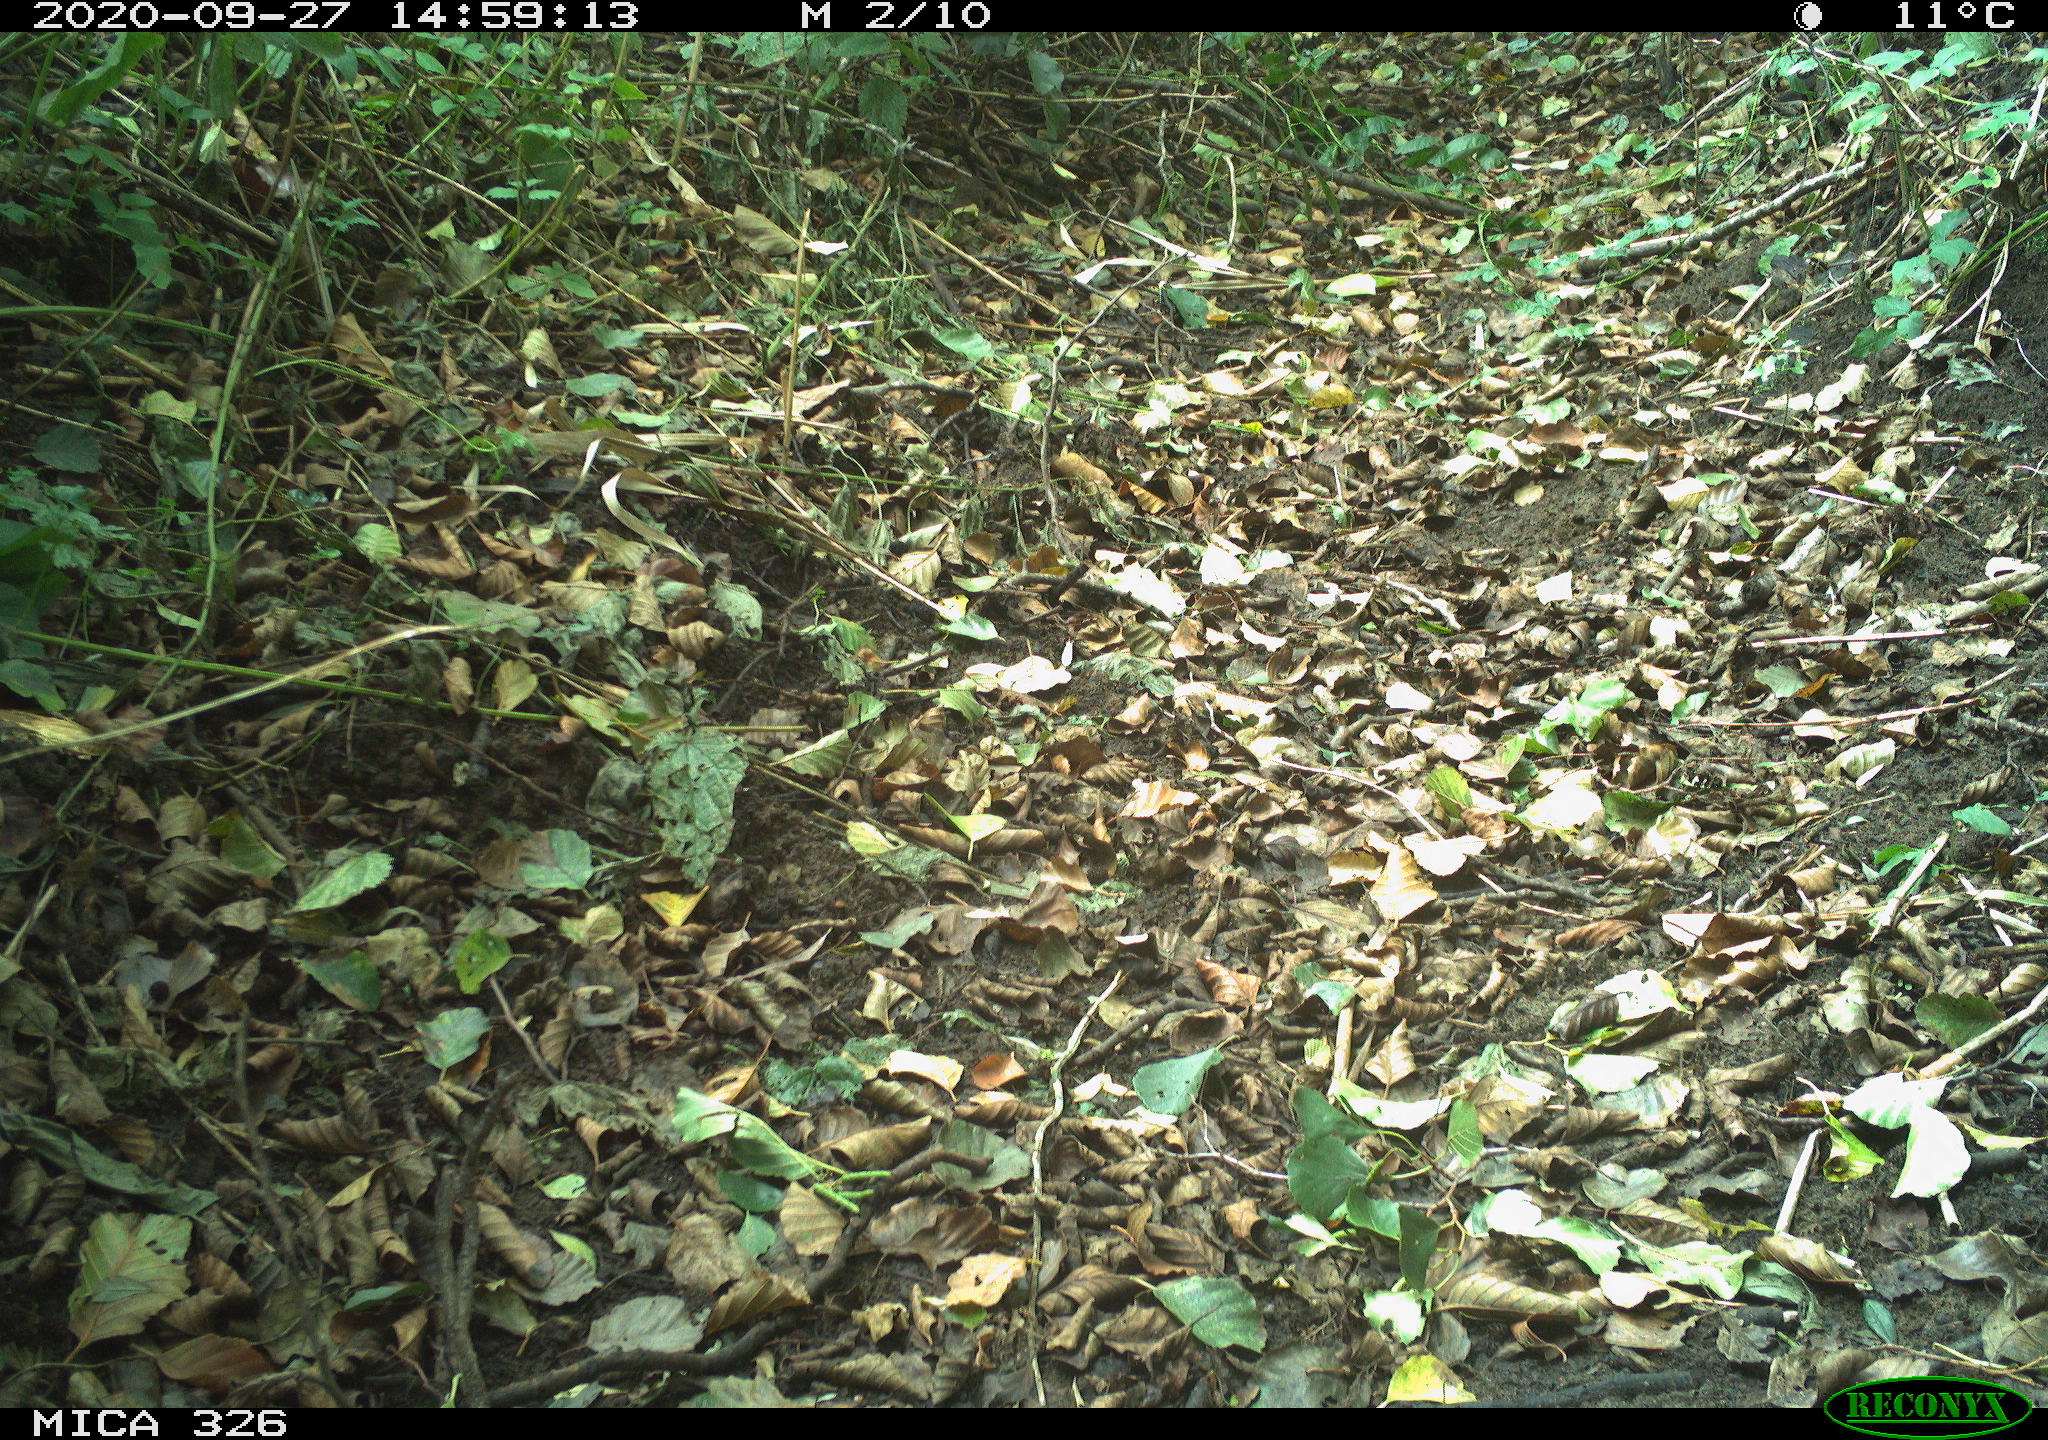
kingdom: Animalia
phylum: Chordata
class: Aves
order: Passeriformes
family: Turdidae
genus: Turdus
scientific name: Turdus merula
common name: Common blackbird
